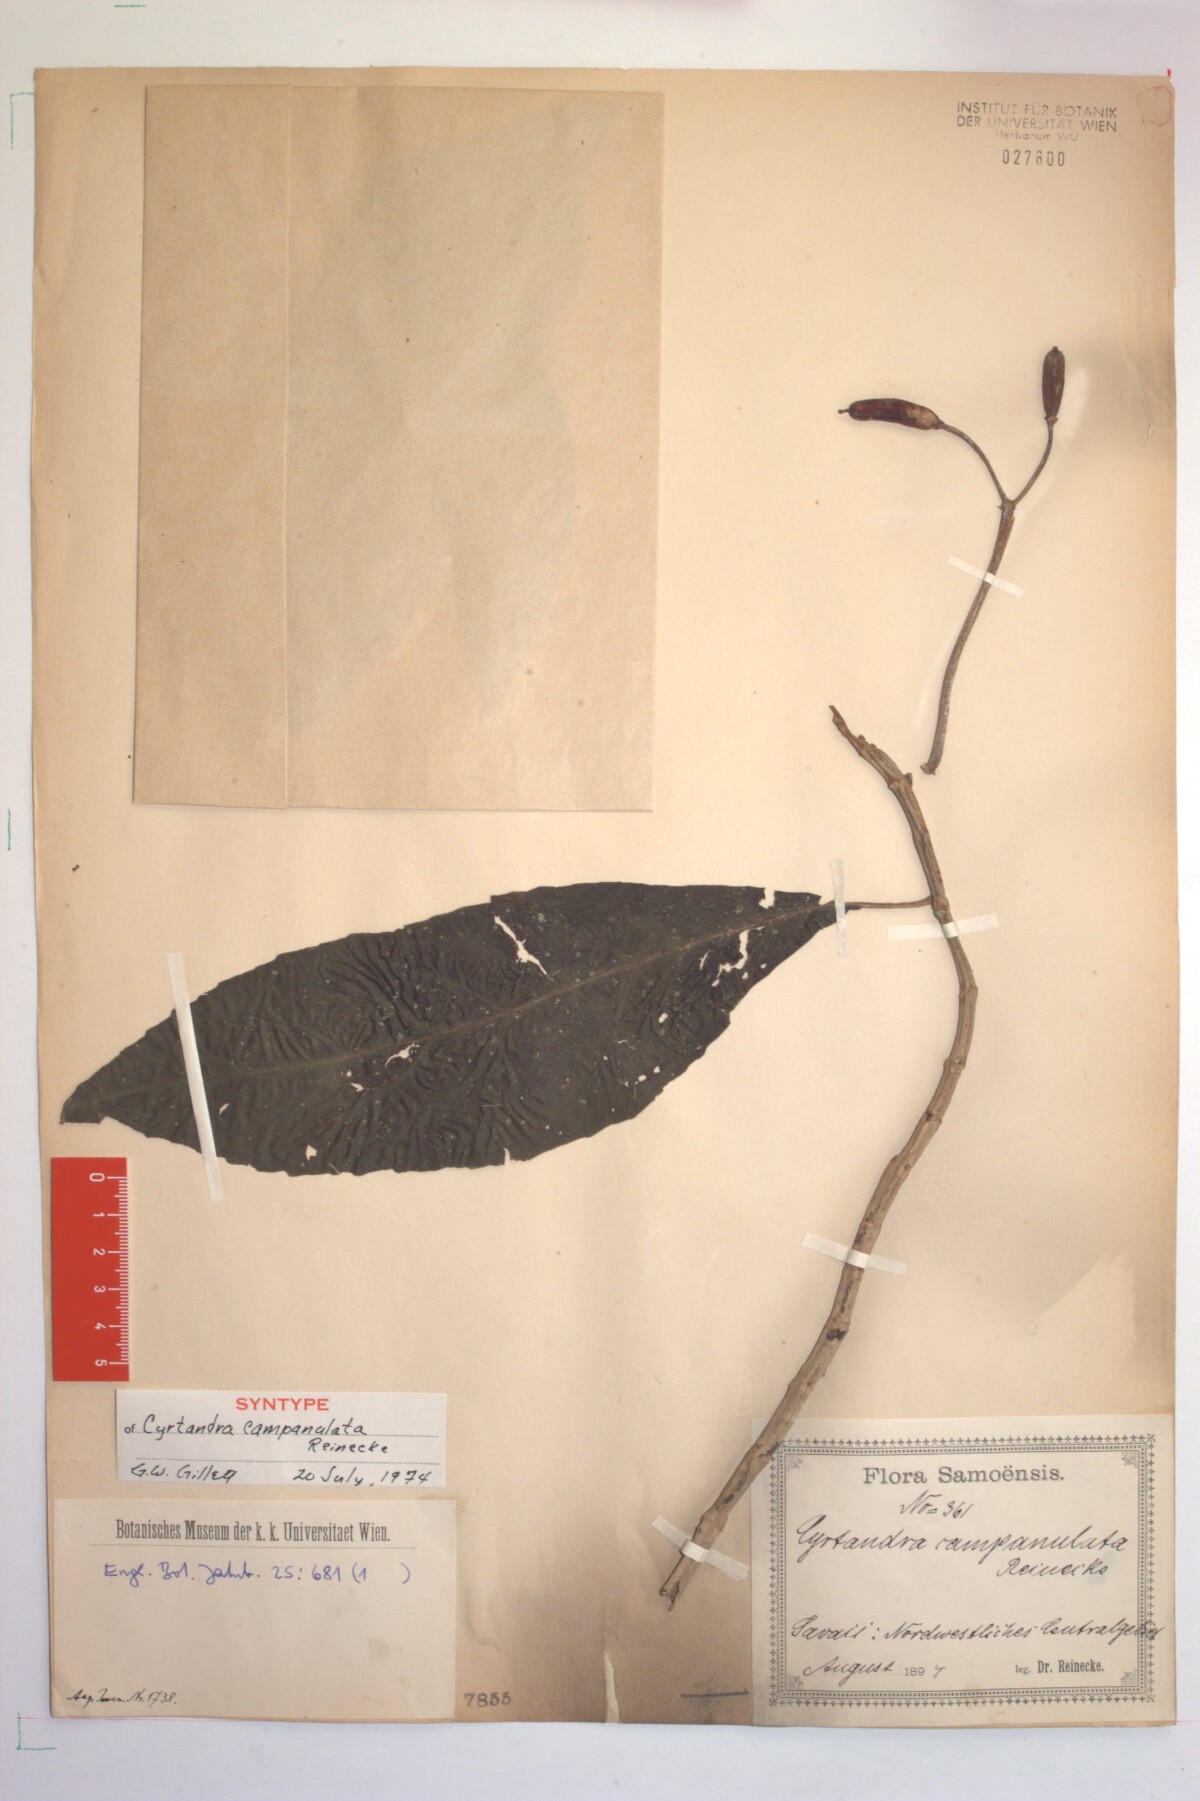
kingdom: Plantae
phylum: Tracheophyta
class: Magnoliopsida
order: Lamiales
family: Gesneriaceae
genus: Cyrtandra
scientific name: Cyrtandra campanulata
